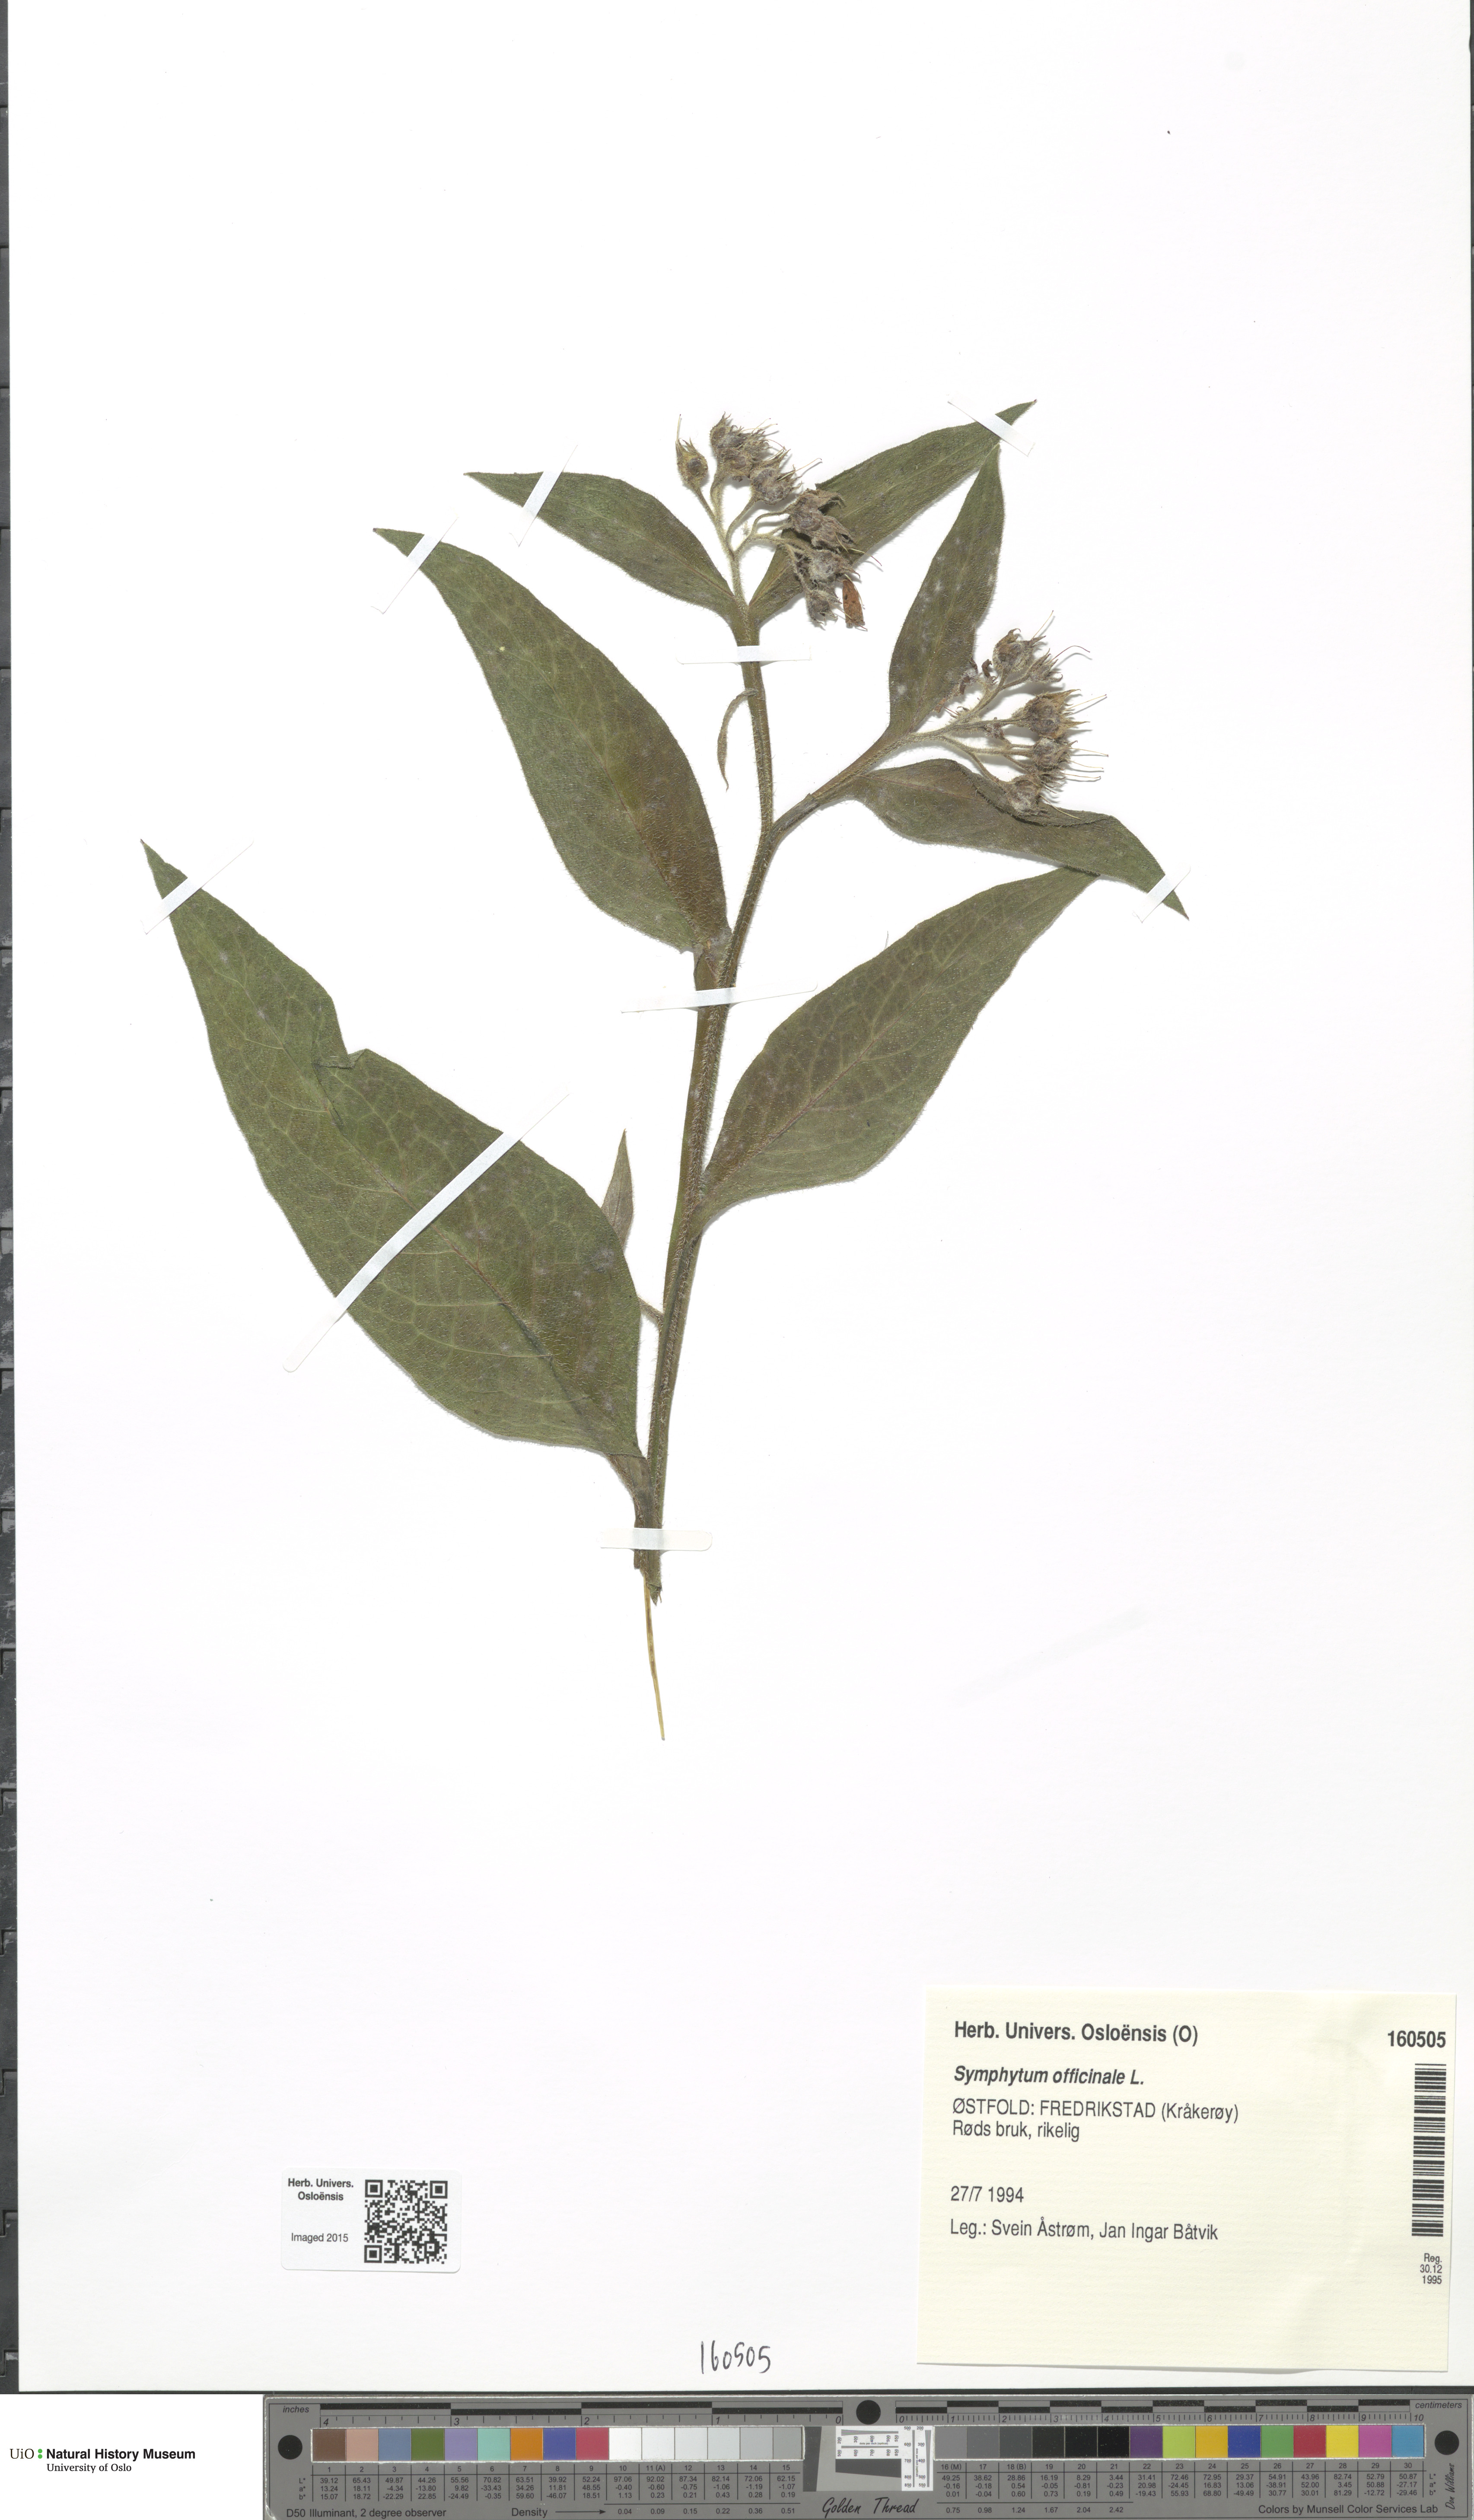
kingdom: Plantae
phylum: Tracheophyta
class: Magnoliopsida
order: Boraginales
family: Boraginaceae
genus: Symphytum
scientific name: Symphytum officinale
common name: Common comfrey
